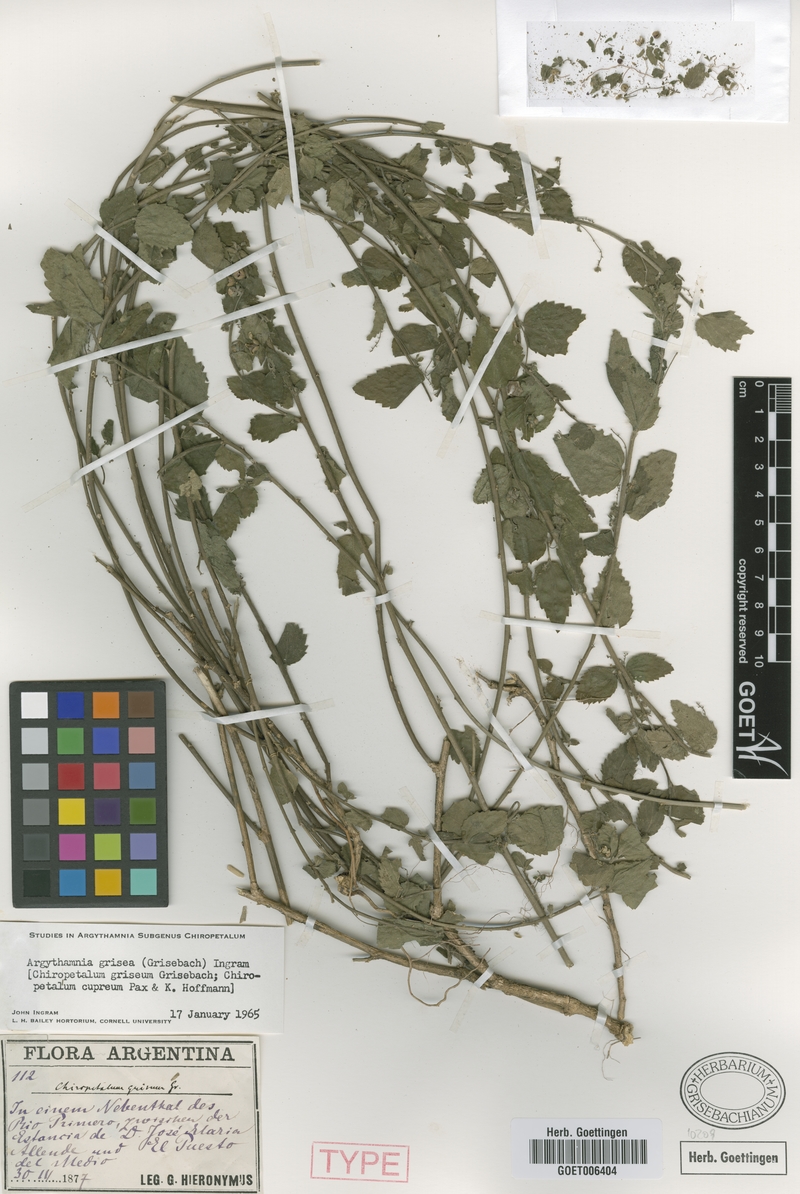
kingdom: Plantae
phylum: Tracheophyta
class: Magnoliopsida
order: Malpighiales
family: Euphorbiaceae
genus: Chiropetalum
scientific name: Chiropetalum griseum
